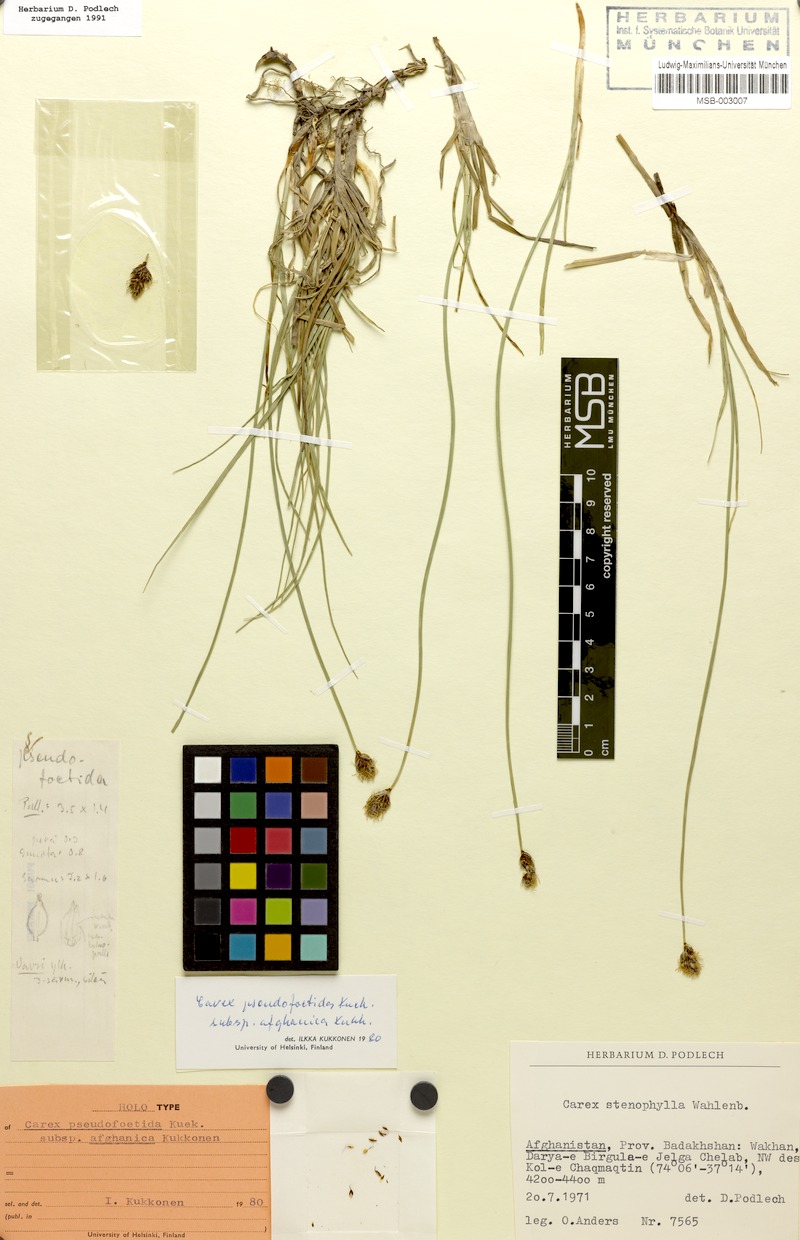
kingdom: Plantae
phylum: Tracheophyta
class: Liliopsida
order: Poales
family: Cyperaceae
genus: Carex
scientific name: Carex enervis
